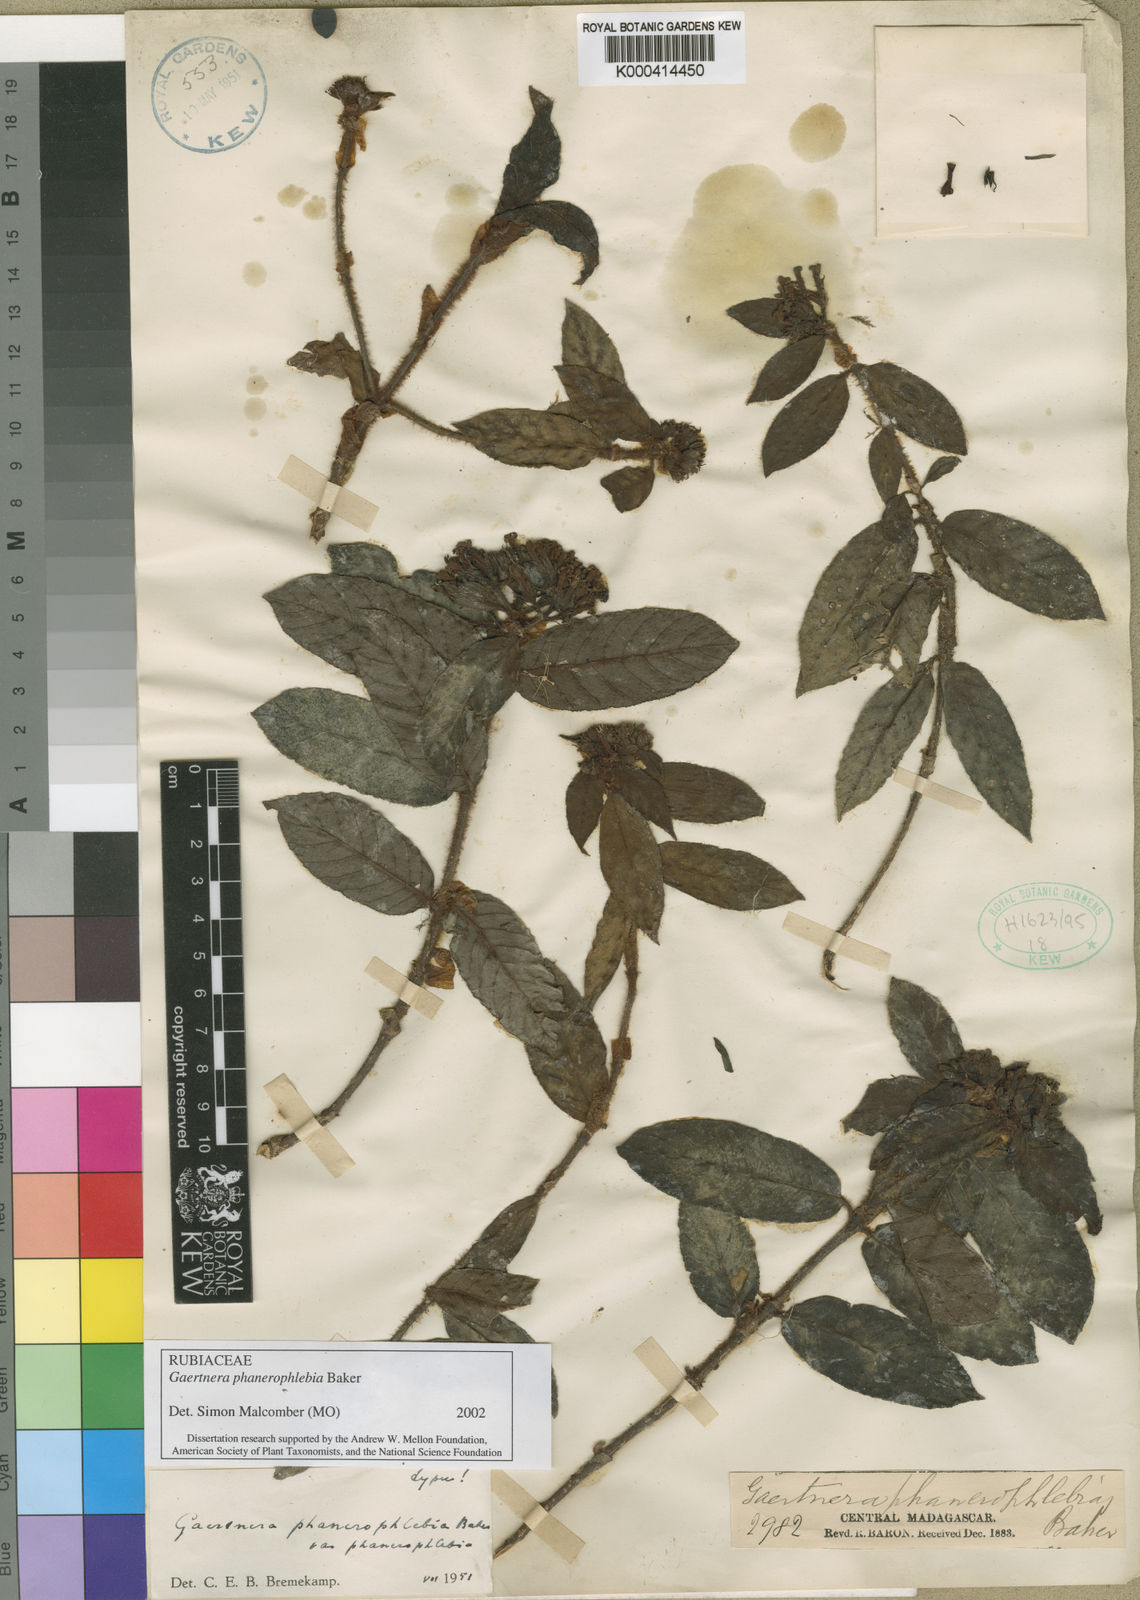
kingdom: Plantae
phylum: Tracheophyta
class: Magnoliopsida
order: Gentianales
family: Rubiaceae
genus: Gaertnera
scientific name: Gaertnera phanerophlebia
